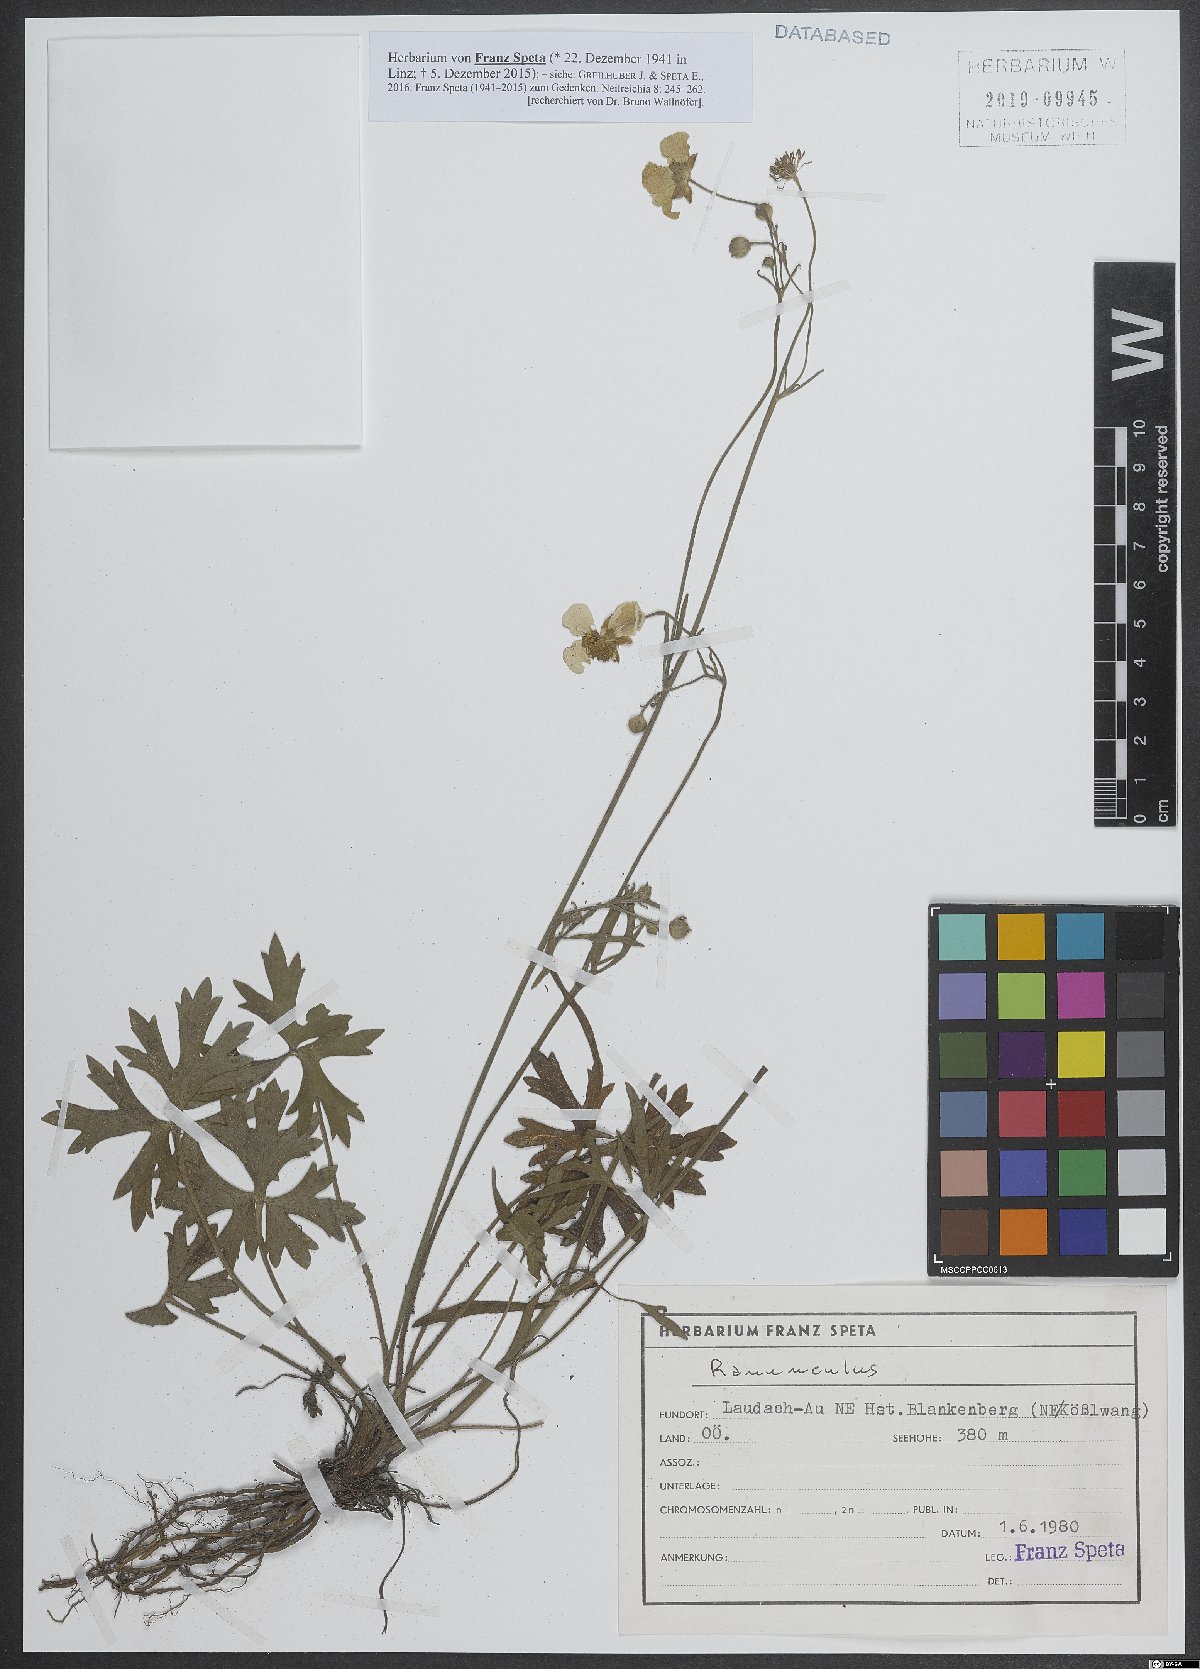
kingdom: Plantae
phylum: Tracheophyta
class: Magnoliopsida
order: Ranunculales
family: Ranunculaceae
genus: Ranunculus
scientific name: Ranunculus
